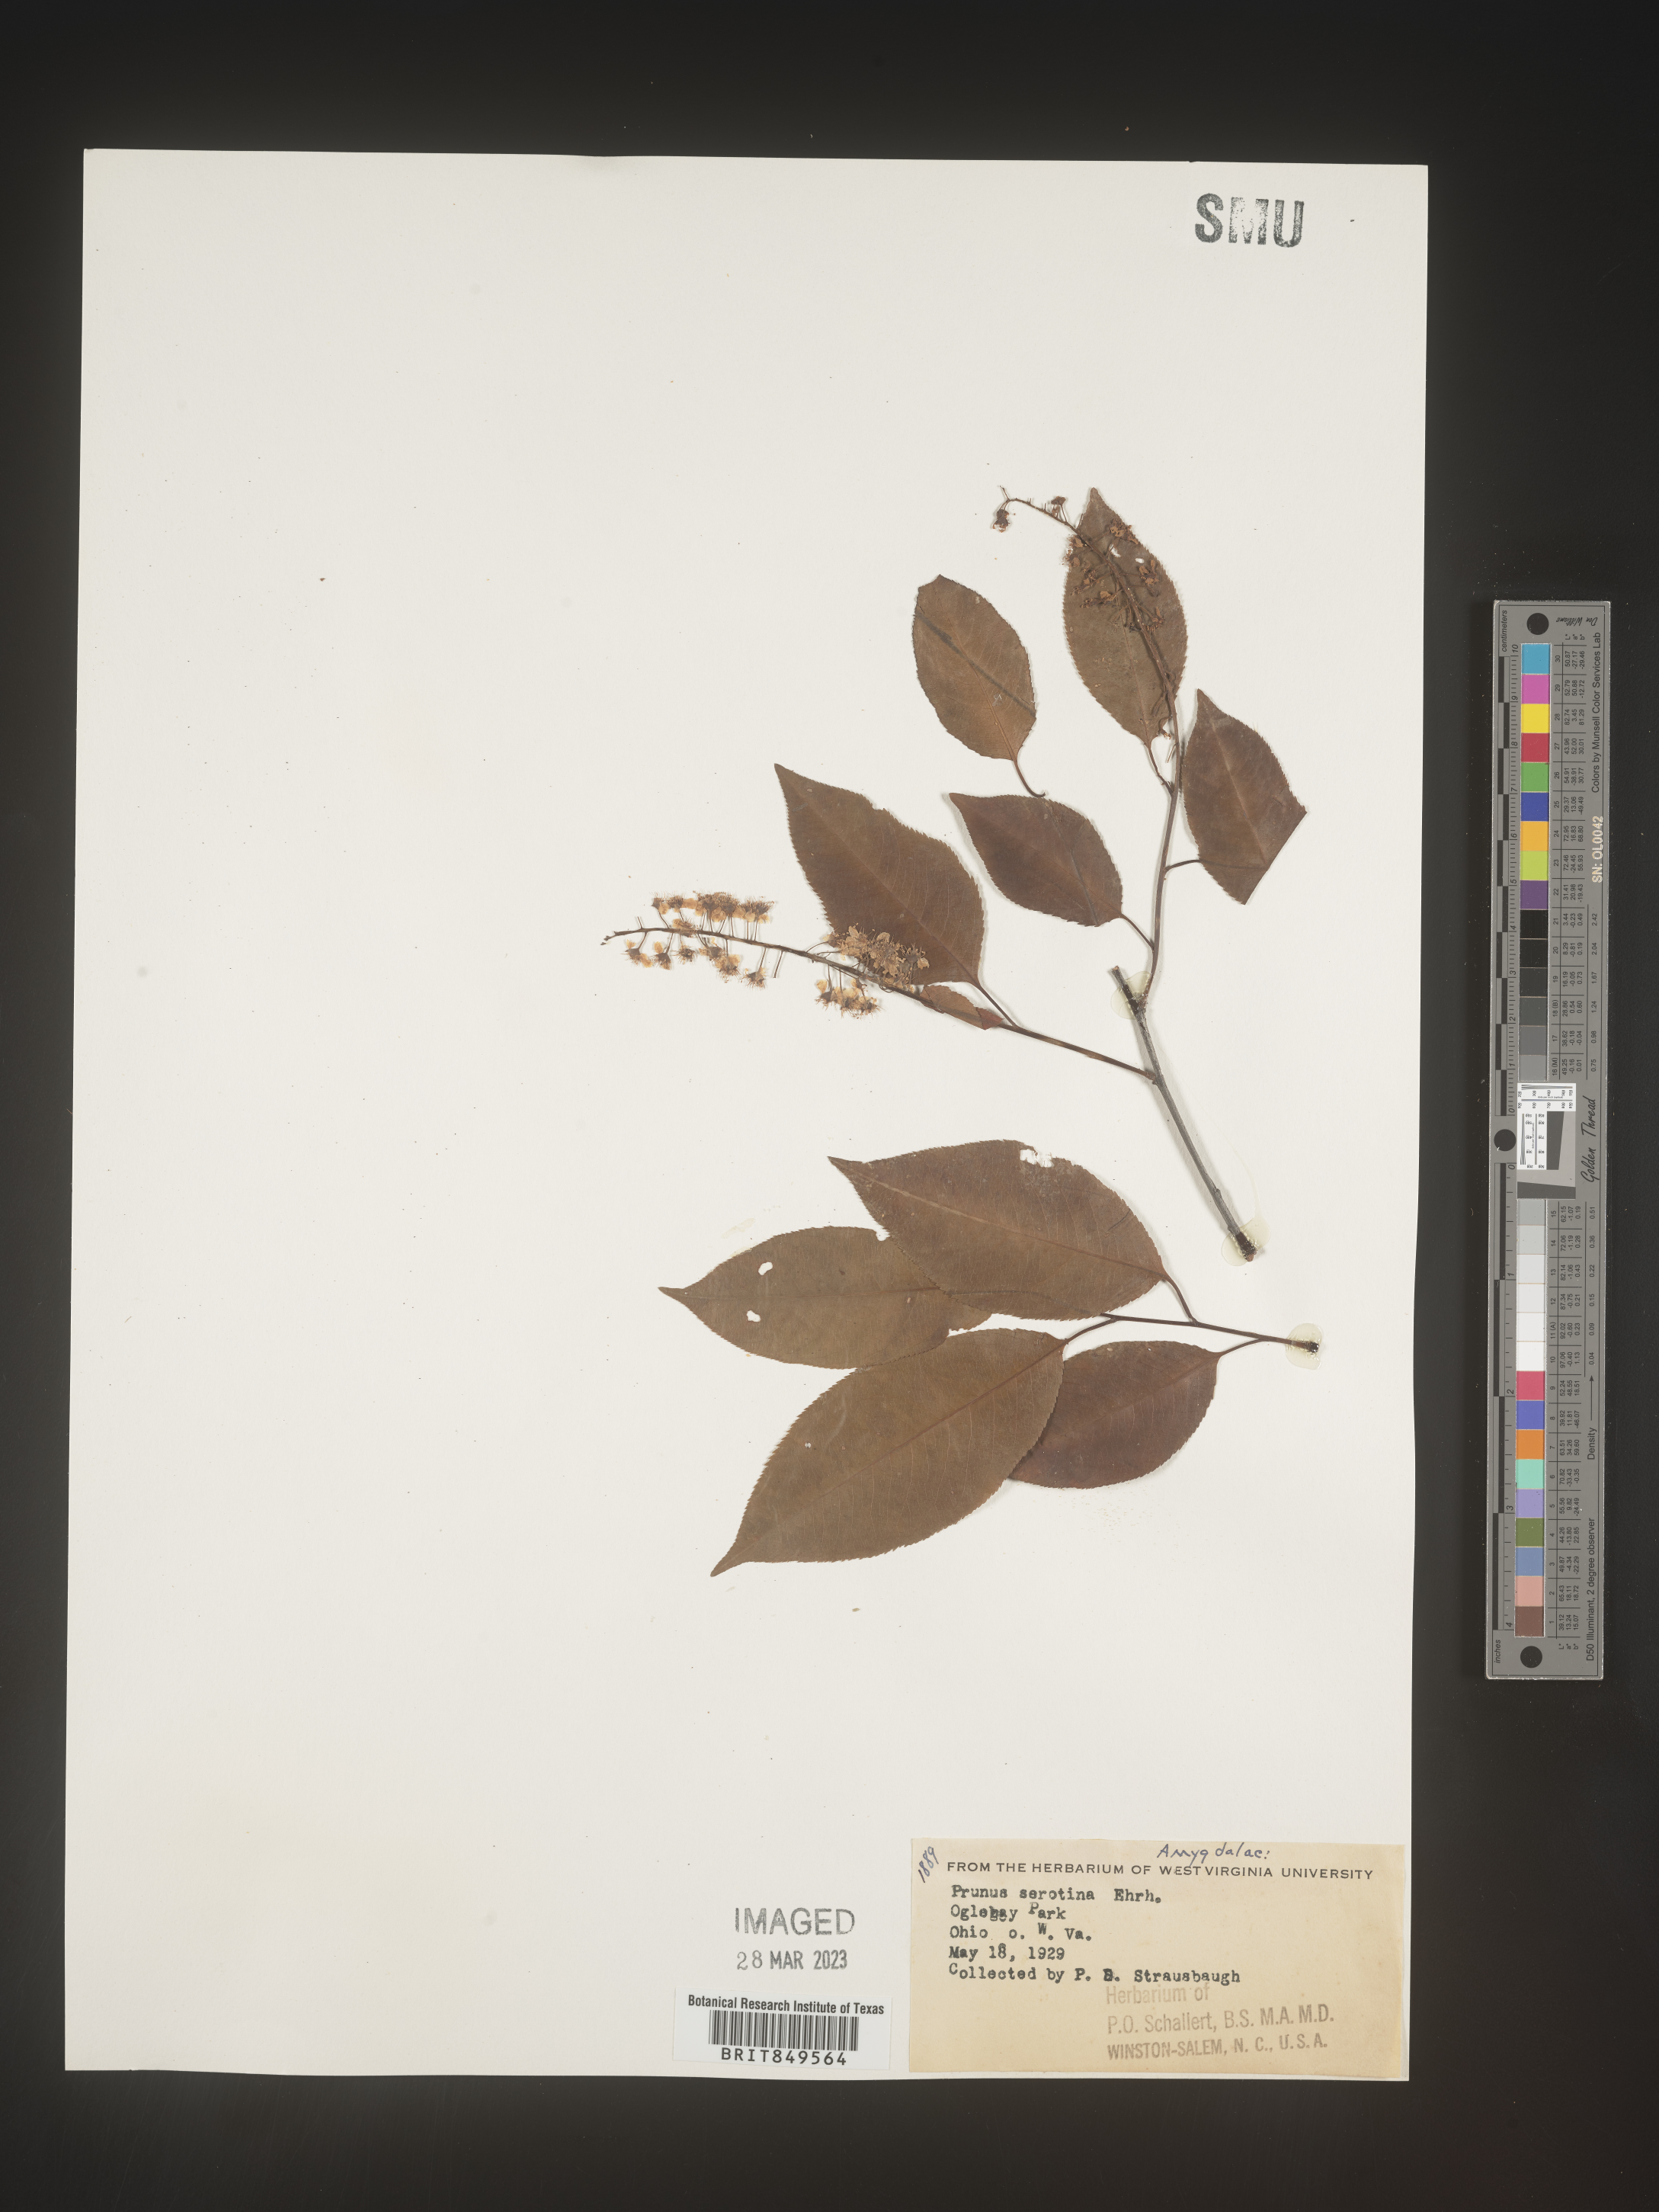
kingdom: Plantae
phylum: Tracheophyta
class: Magnoliopsida
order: Rosales
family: Rosaceae
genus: Prunus
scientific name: Prunus serotina
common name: Black cherry
